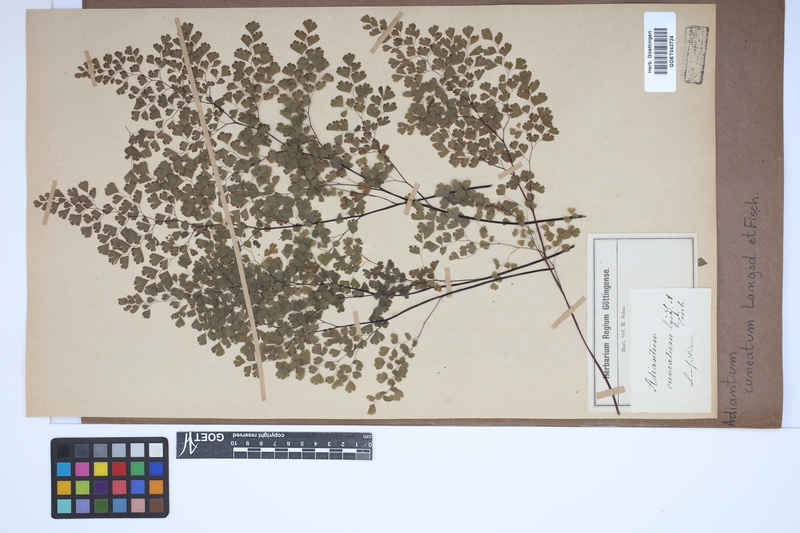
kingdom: Plantae
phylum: Tracheophyta
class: Polypodiopsida
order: Polypodiales
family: Pteridaceae
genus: Adiantum
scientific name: Adiantum raddianum
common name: Delta maidenhair fern
